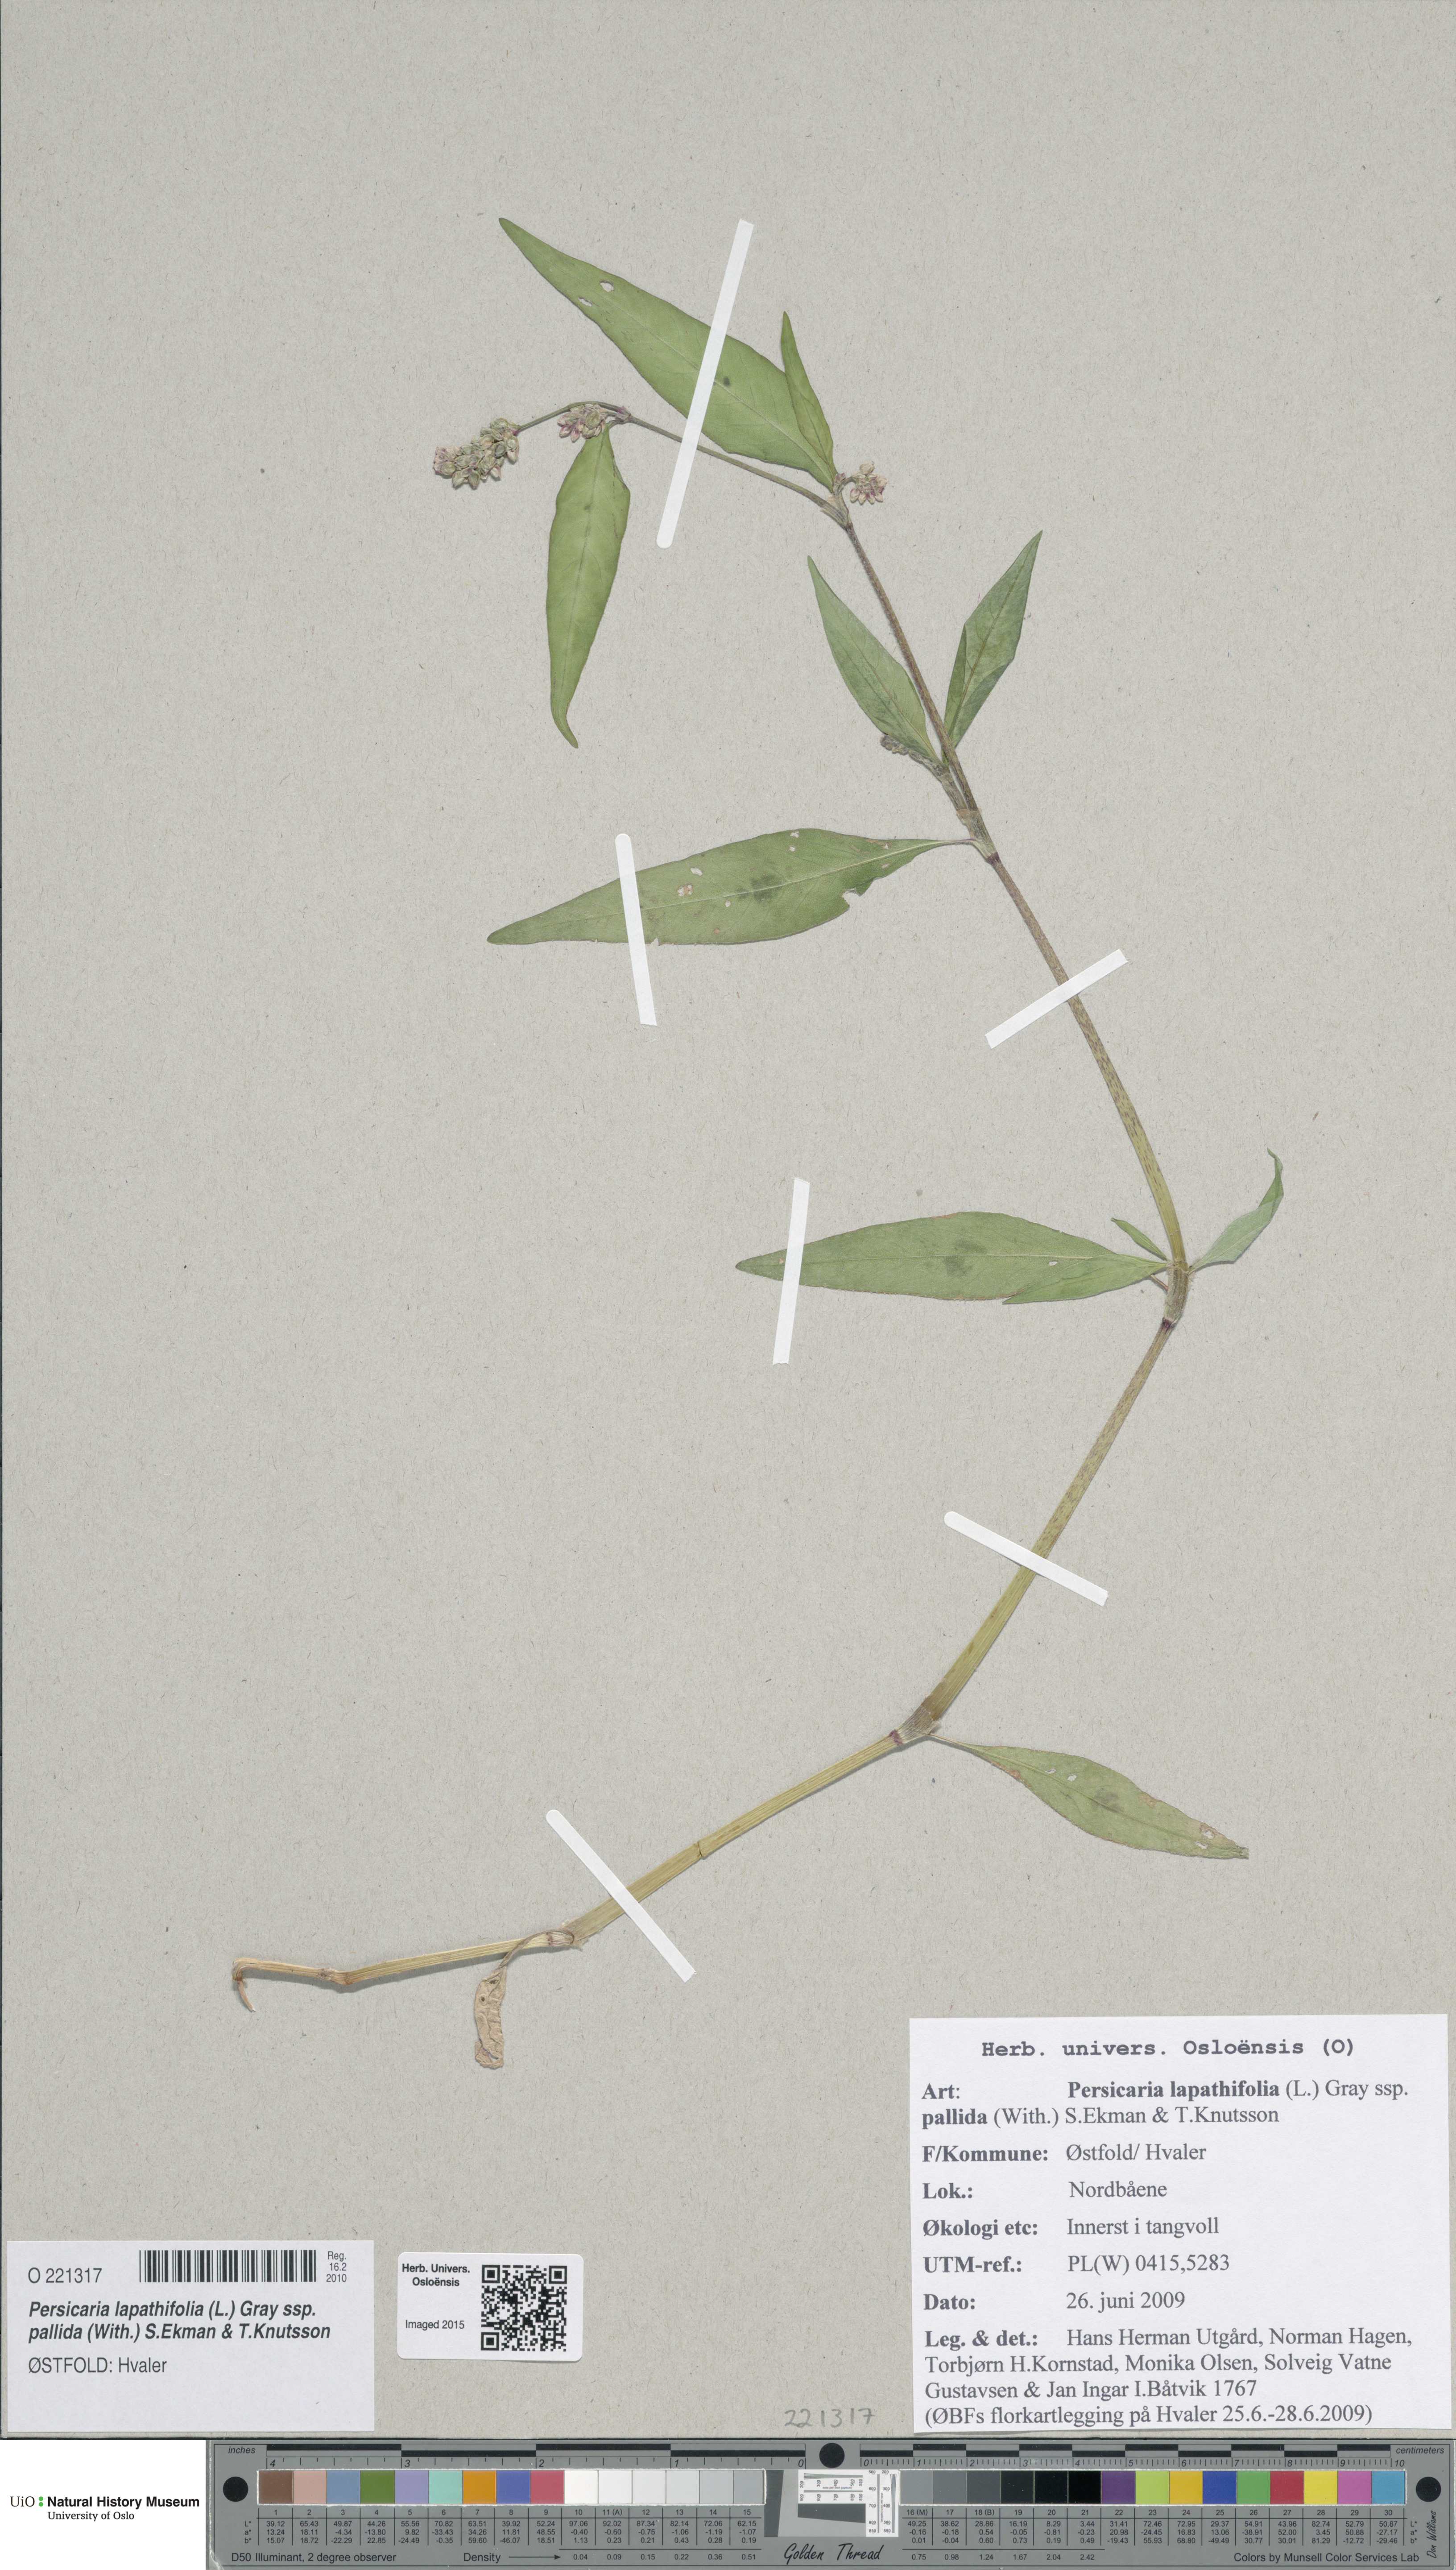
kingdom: Plantae
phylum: Tracheophyta
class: Magnoliopsida
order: Caryophyllales
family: Polygonaceae
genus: Persicaria
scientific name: Persicaria lapathifolia
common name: Curlytop knotweed
